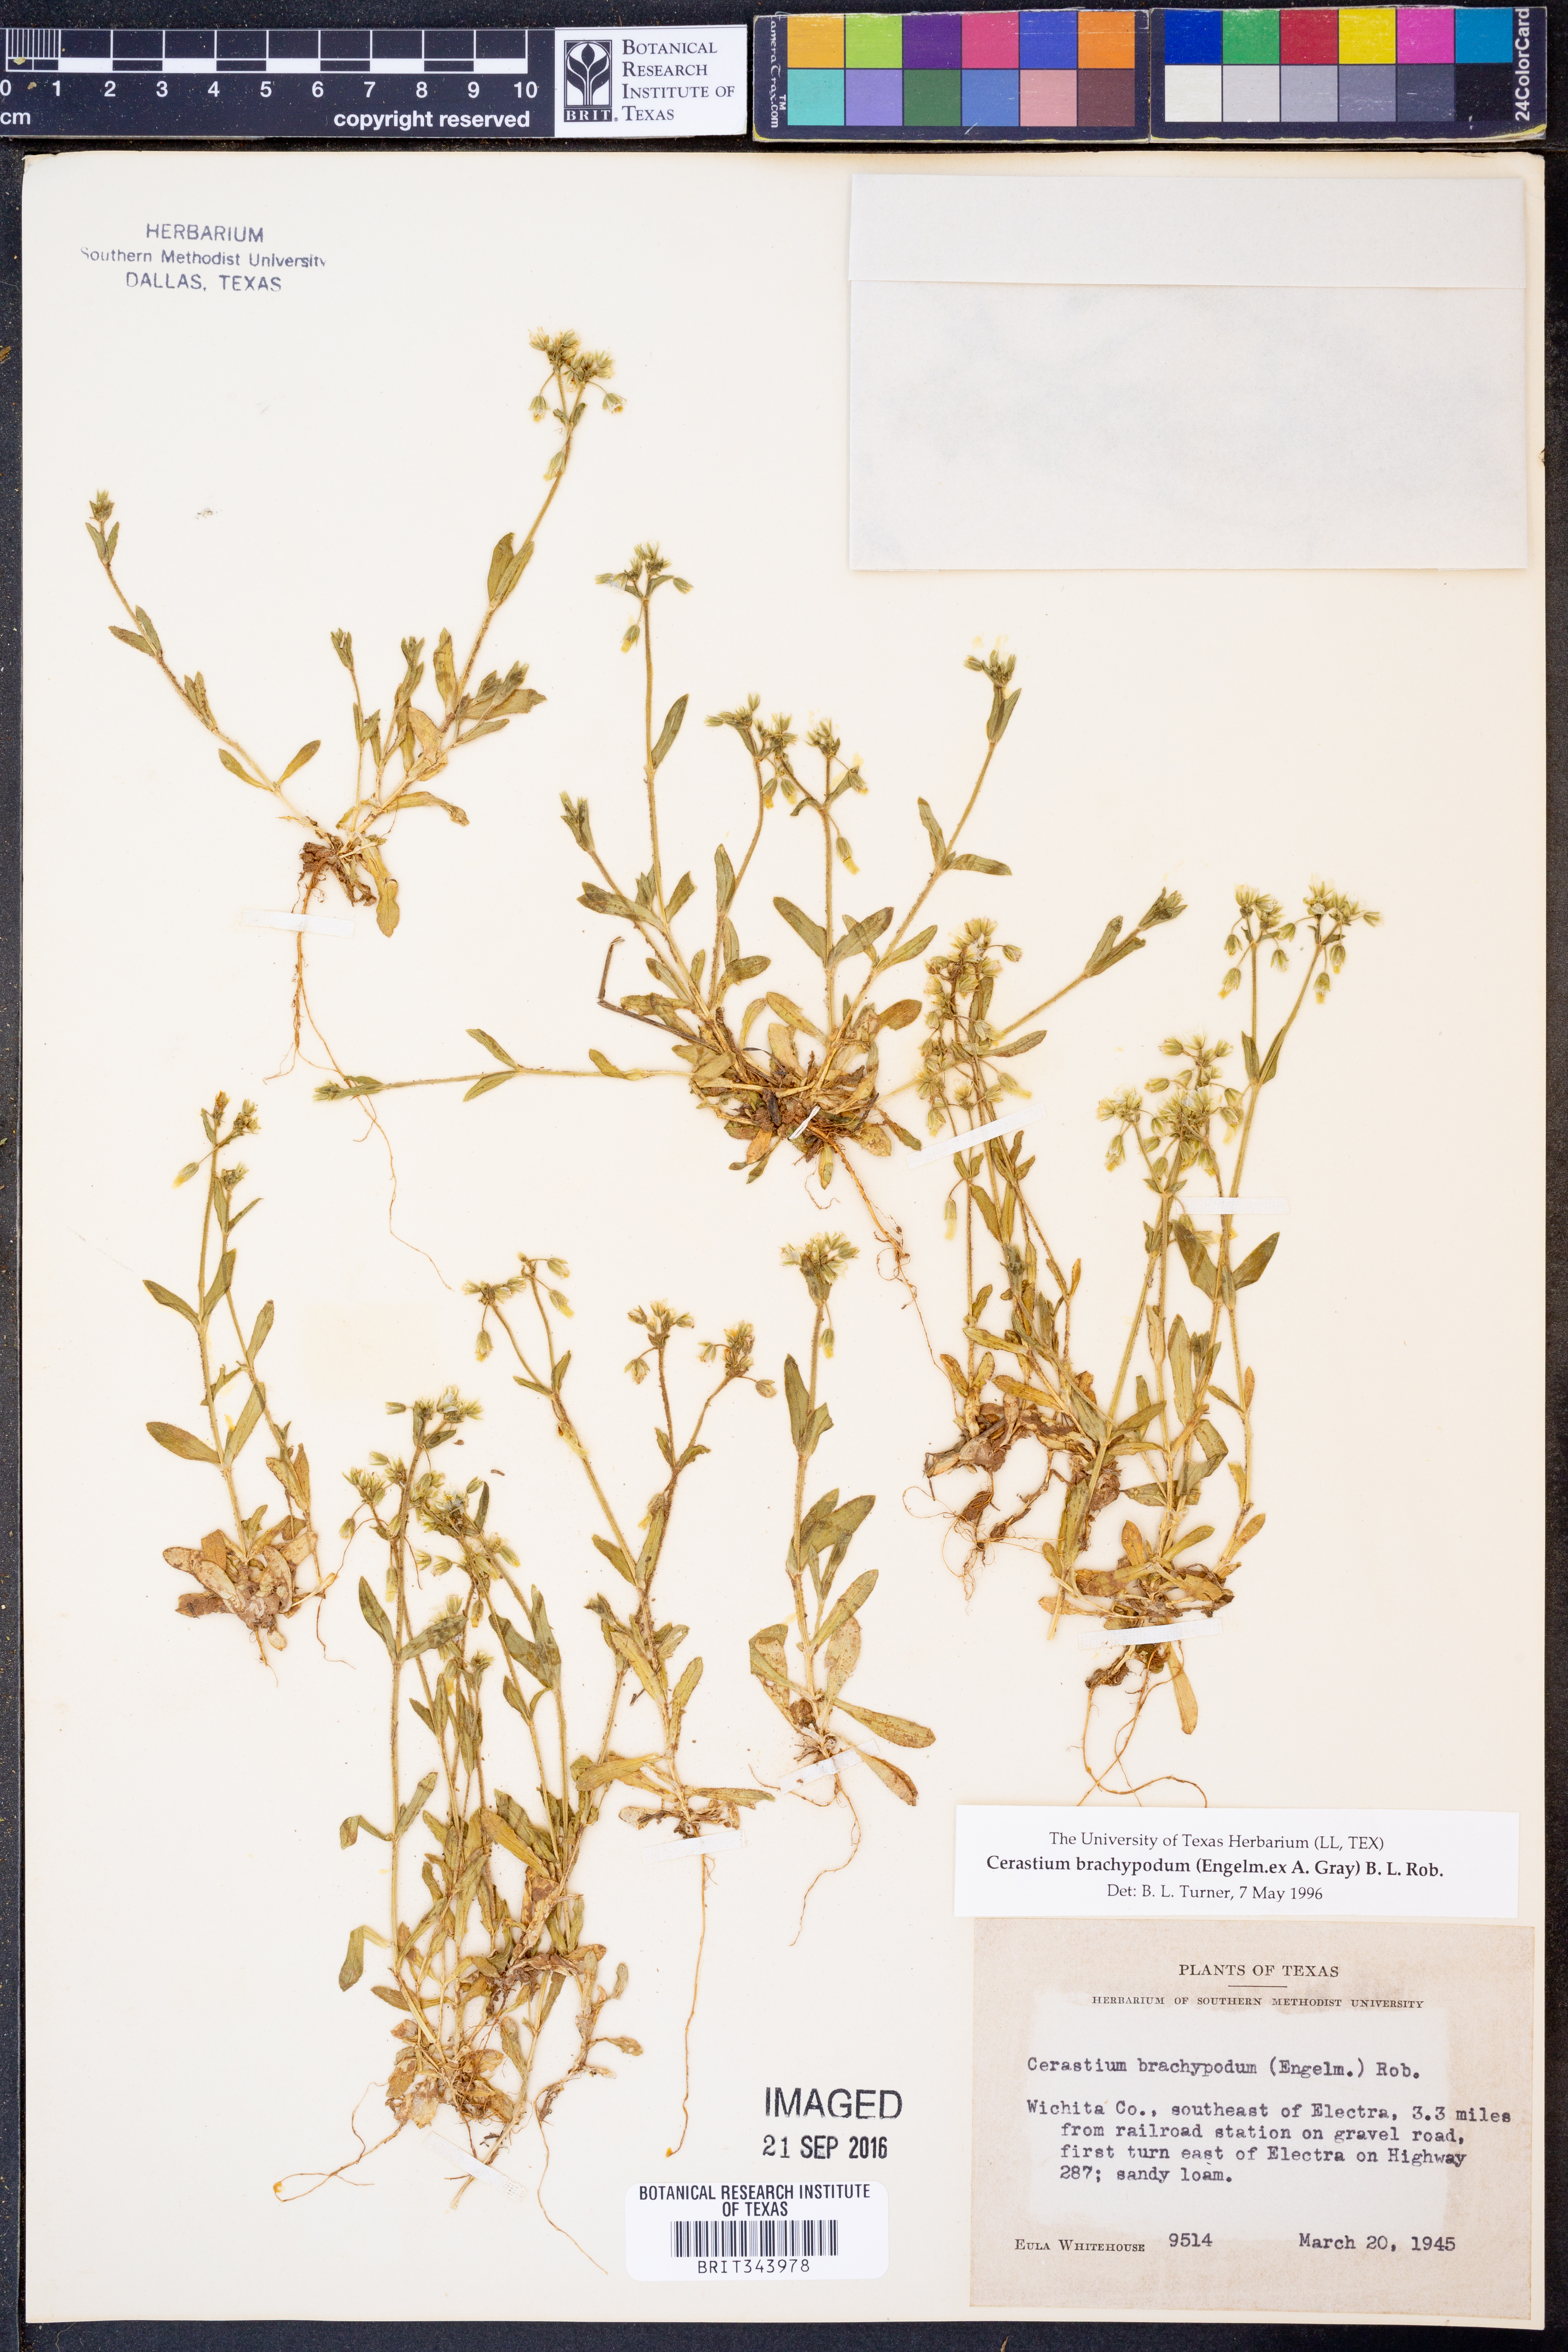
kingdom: Plantae
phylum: Tracheophyta
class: Magnoliopsida
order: Caryophyllales
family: Caryophyllaceae
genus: Cerastium
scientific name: Cerastium brachypodum
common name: Short-pedicelled nodding chickweed
